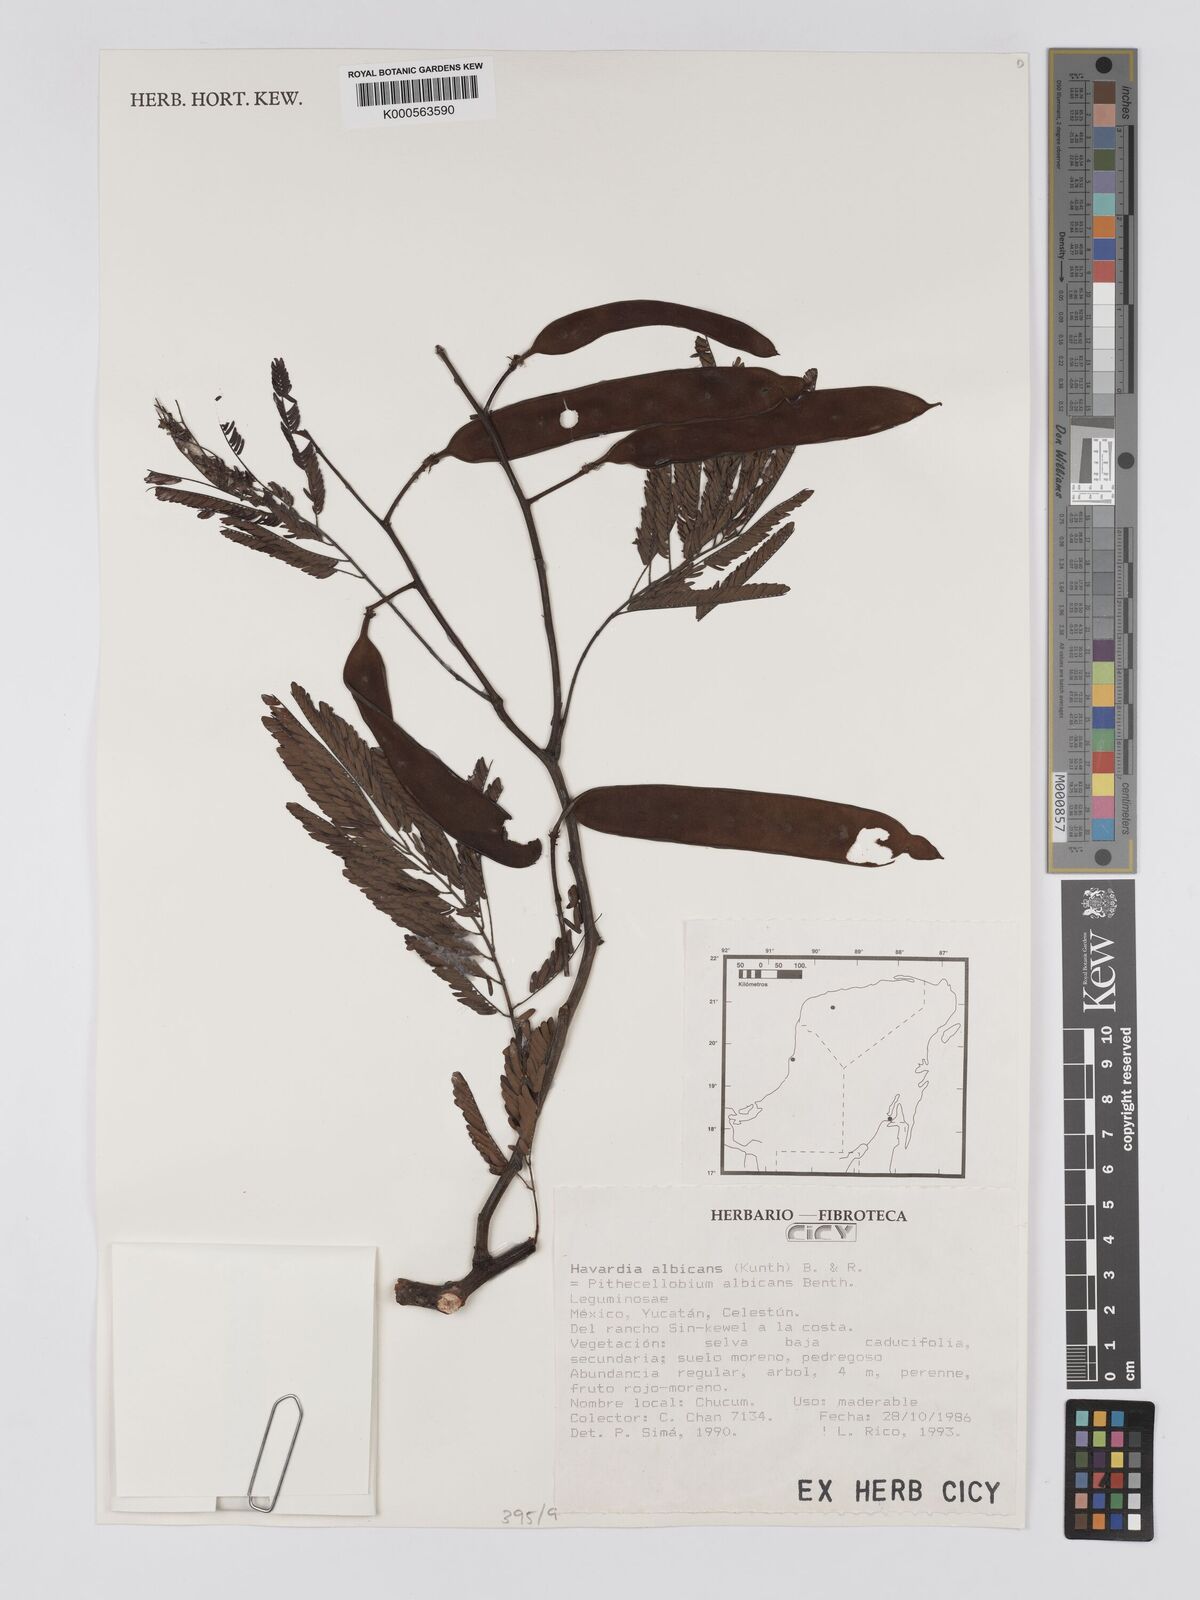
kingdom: Plantae
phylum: Tracheophyta
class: Magnoliopsida
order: Fabales
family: Fabaceae
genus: Havardia
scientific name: Havardia albicans
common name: Huisache
